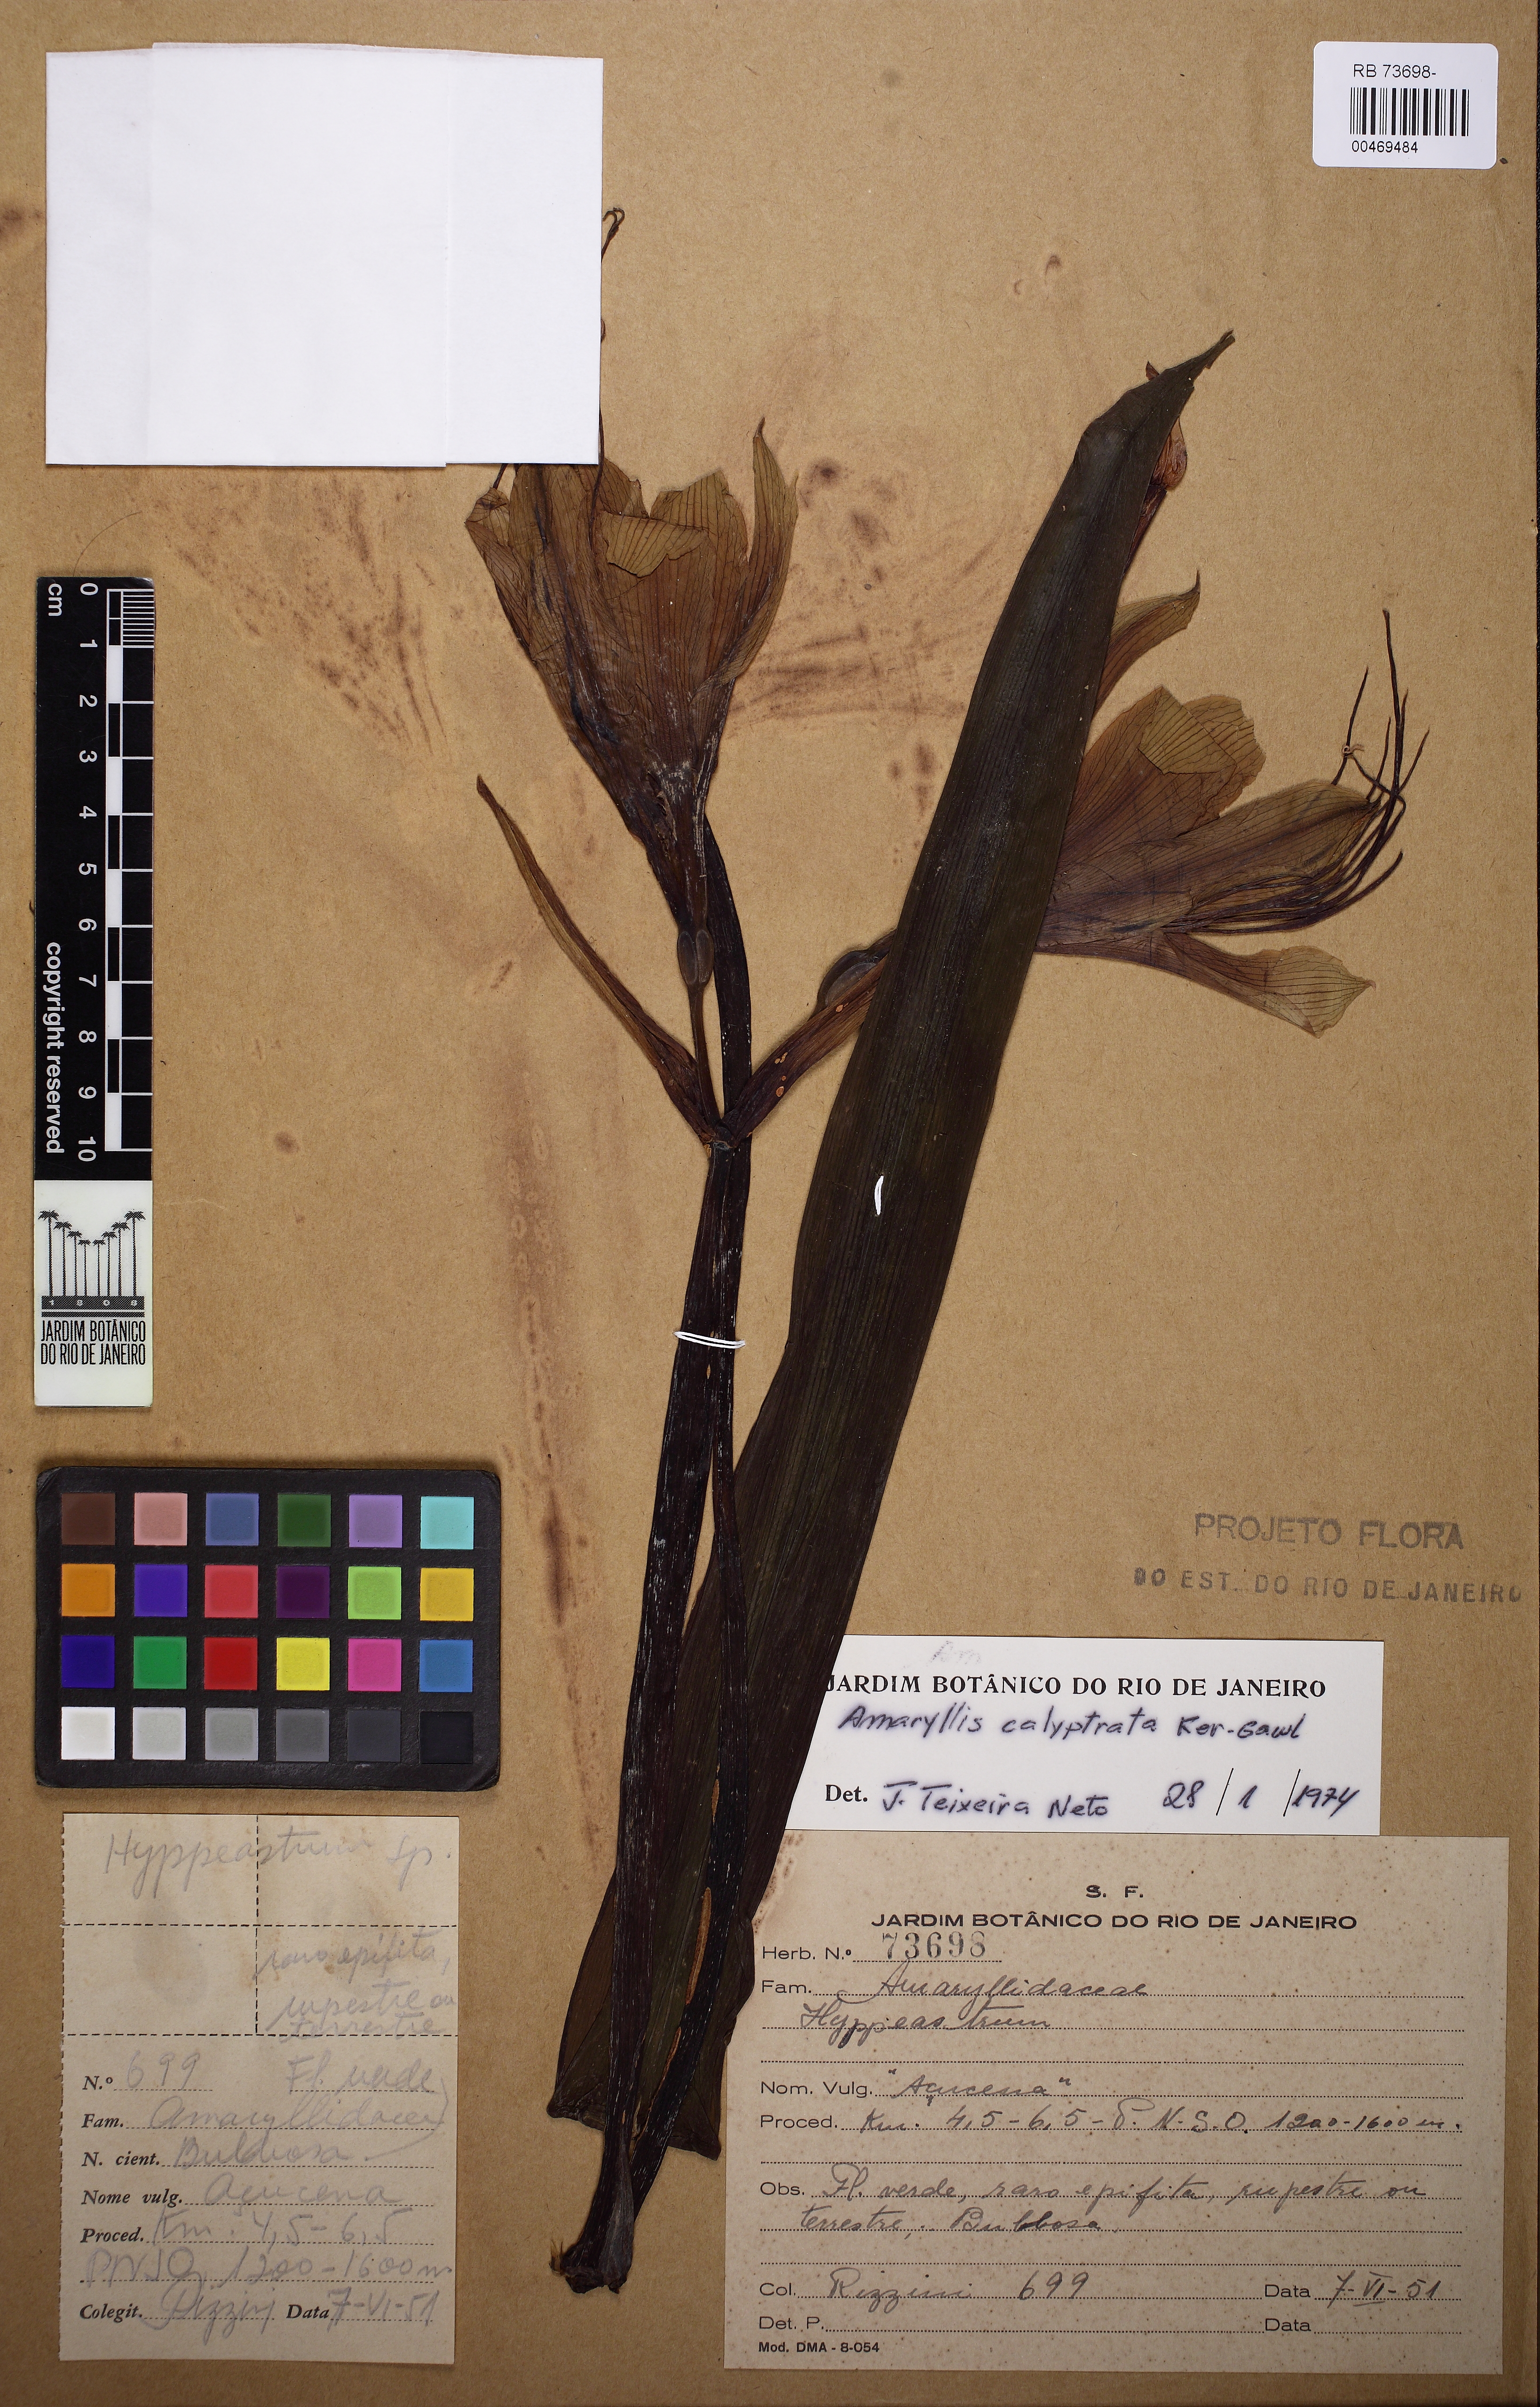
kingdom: Plantae
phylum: Tracheophyta
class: Liliopsida
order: Asparagales
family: Amaryllidaceae
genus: Hippeastrum
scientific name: Hippeastrum calyptratum
